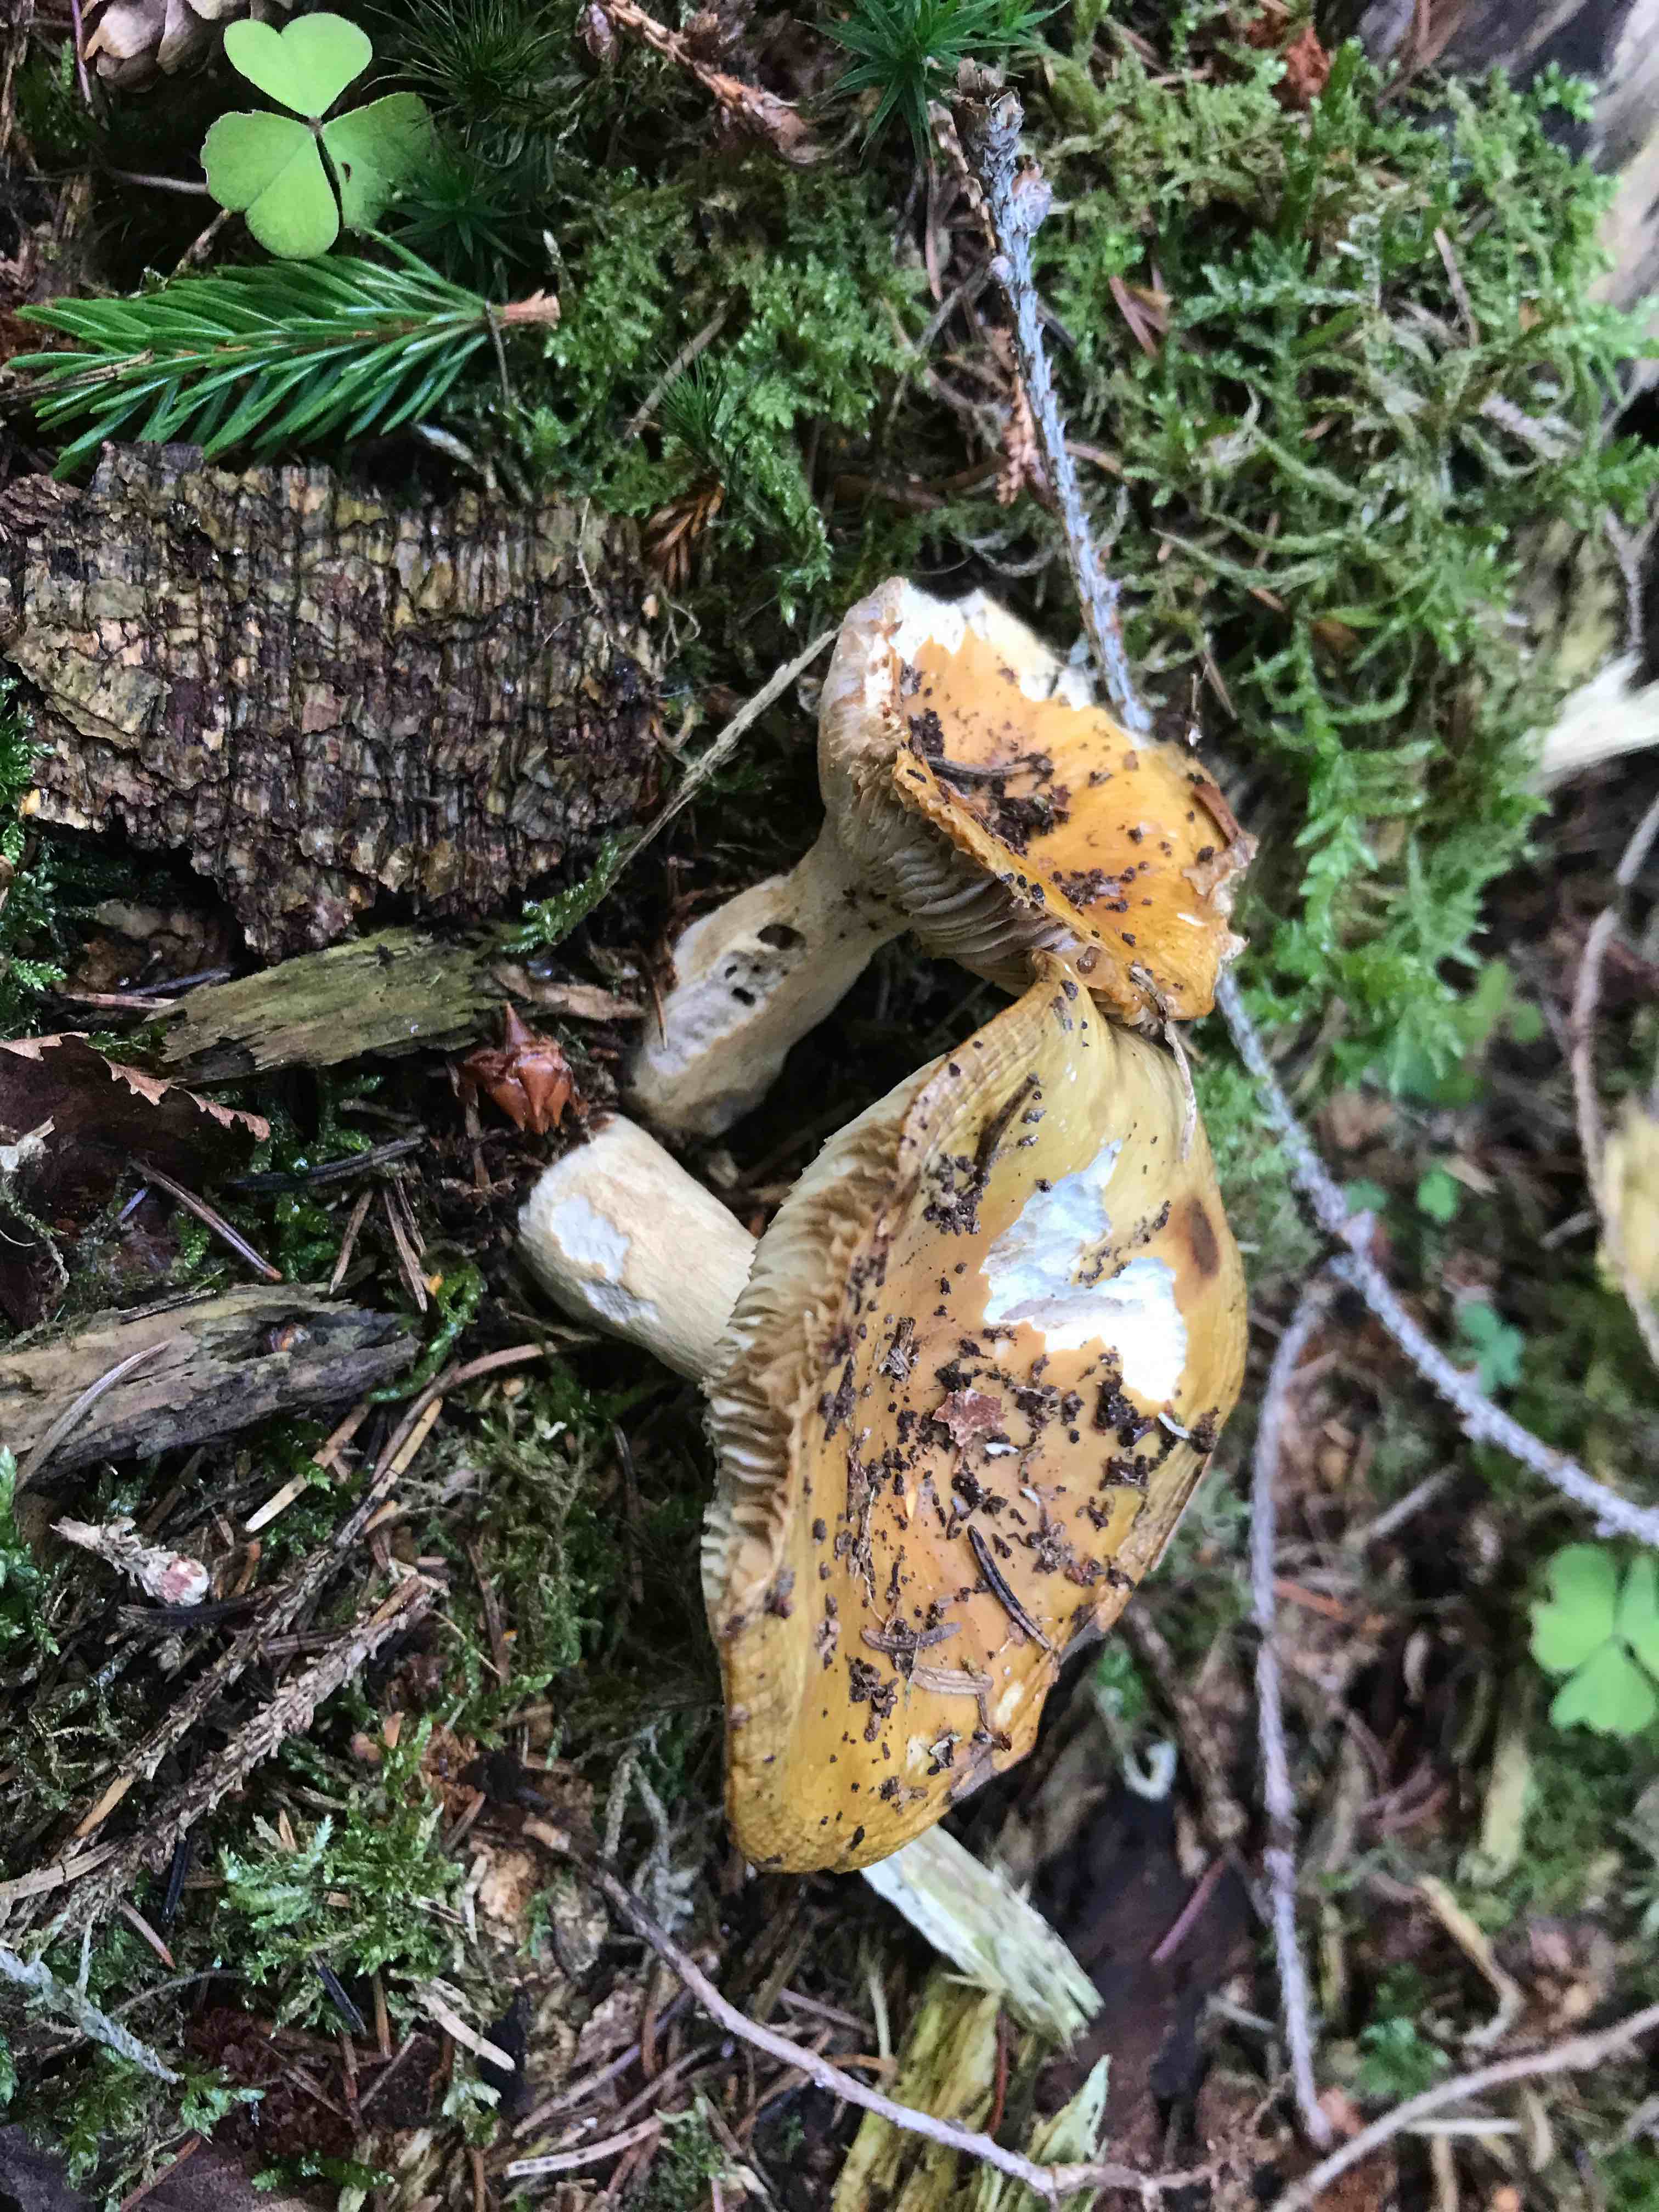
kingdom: Fungi
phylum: Basidiomycota
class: Agaricomycetes
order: Russulales
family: Russulaceae
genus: Russula
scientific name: Russula ochroleuca
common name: okkergul skørhat
